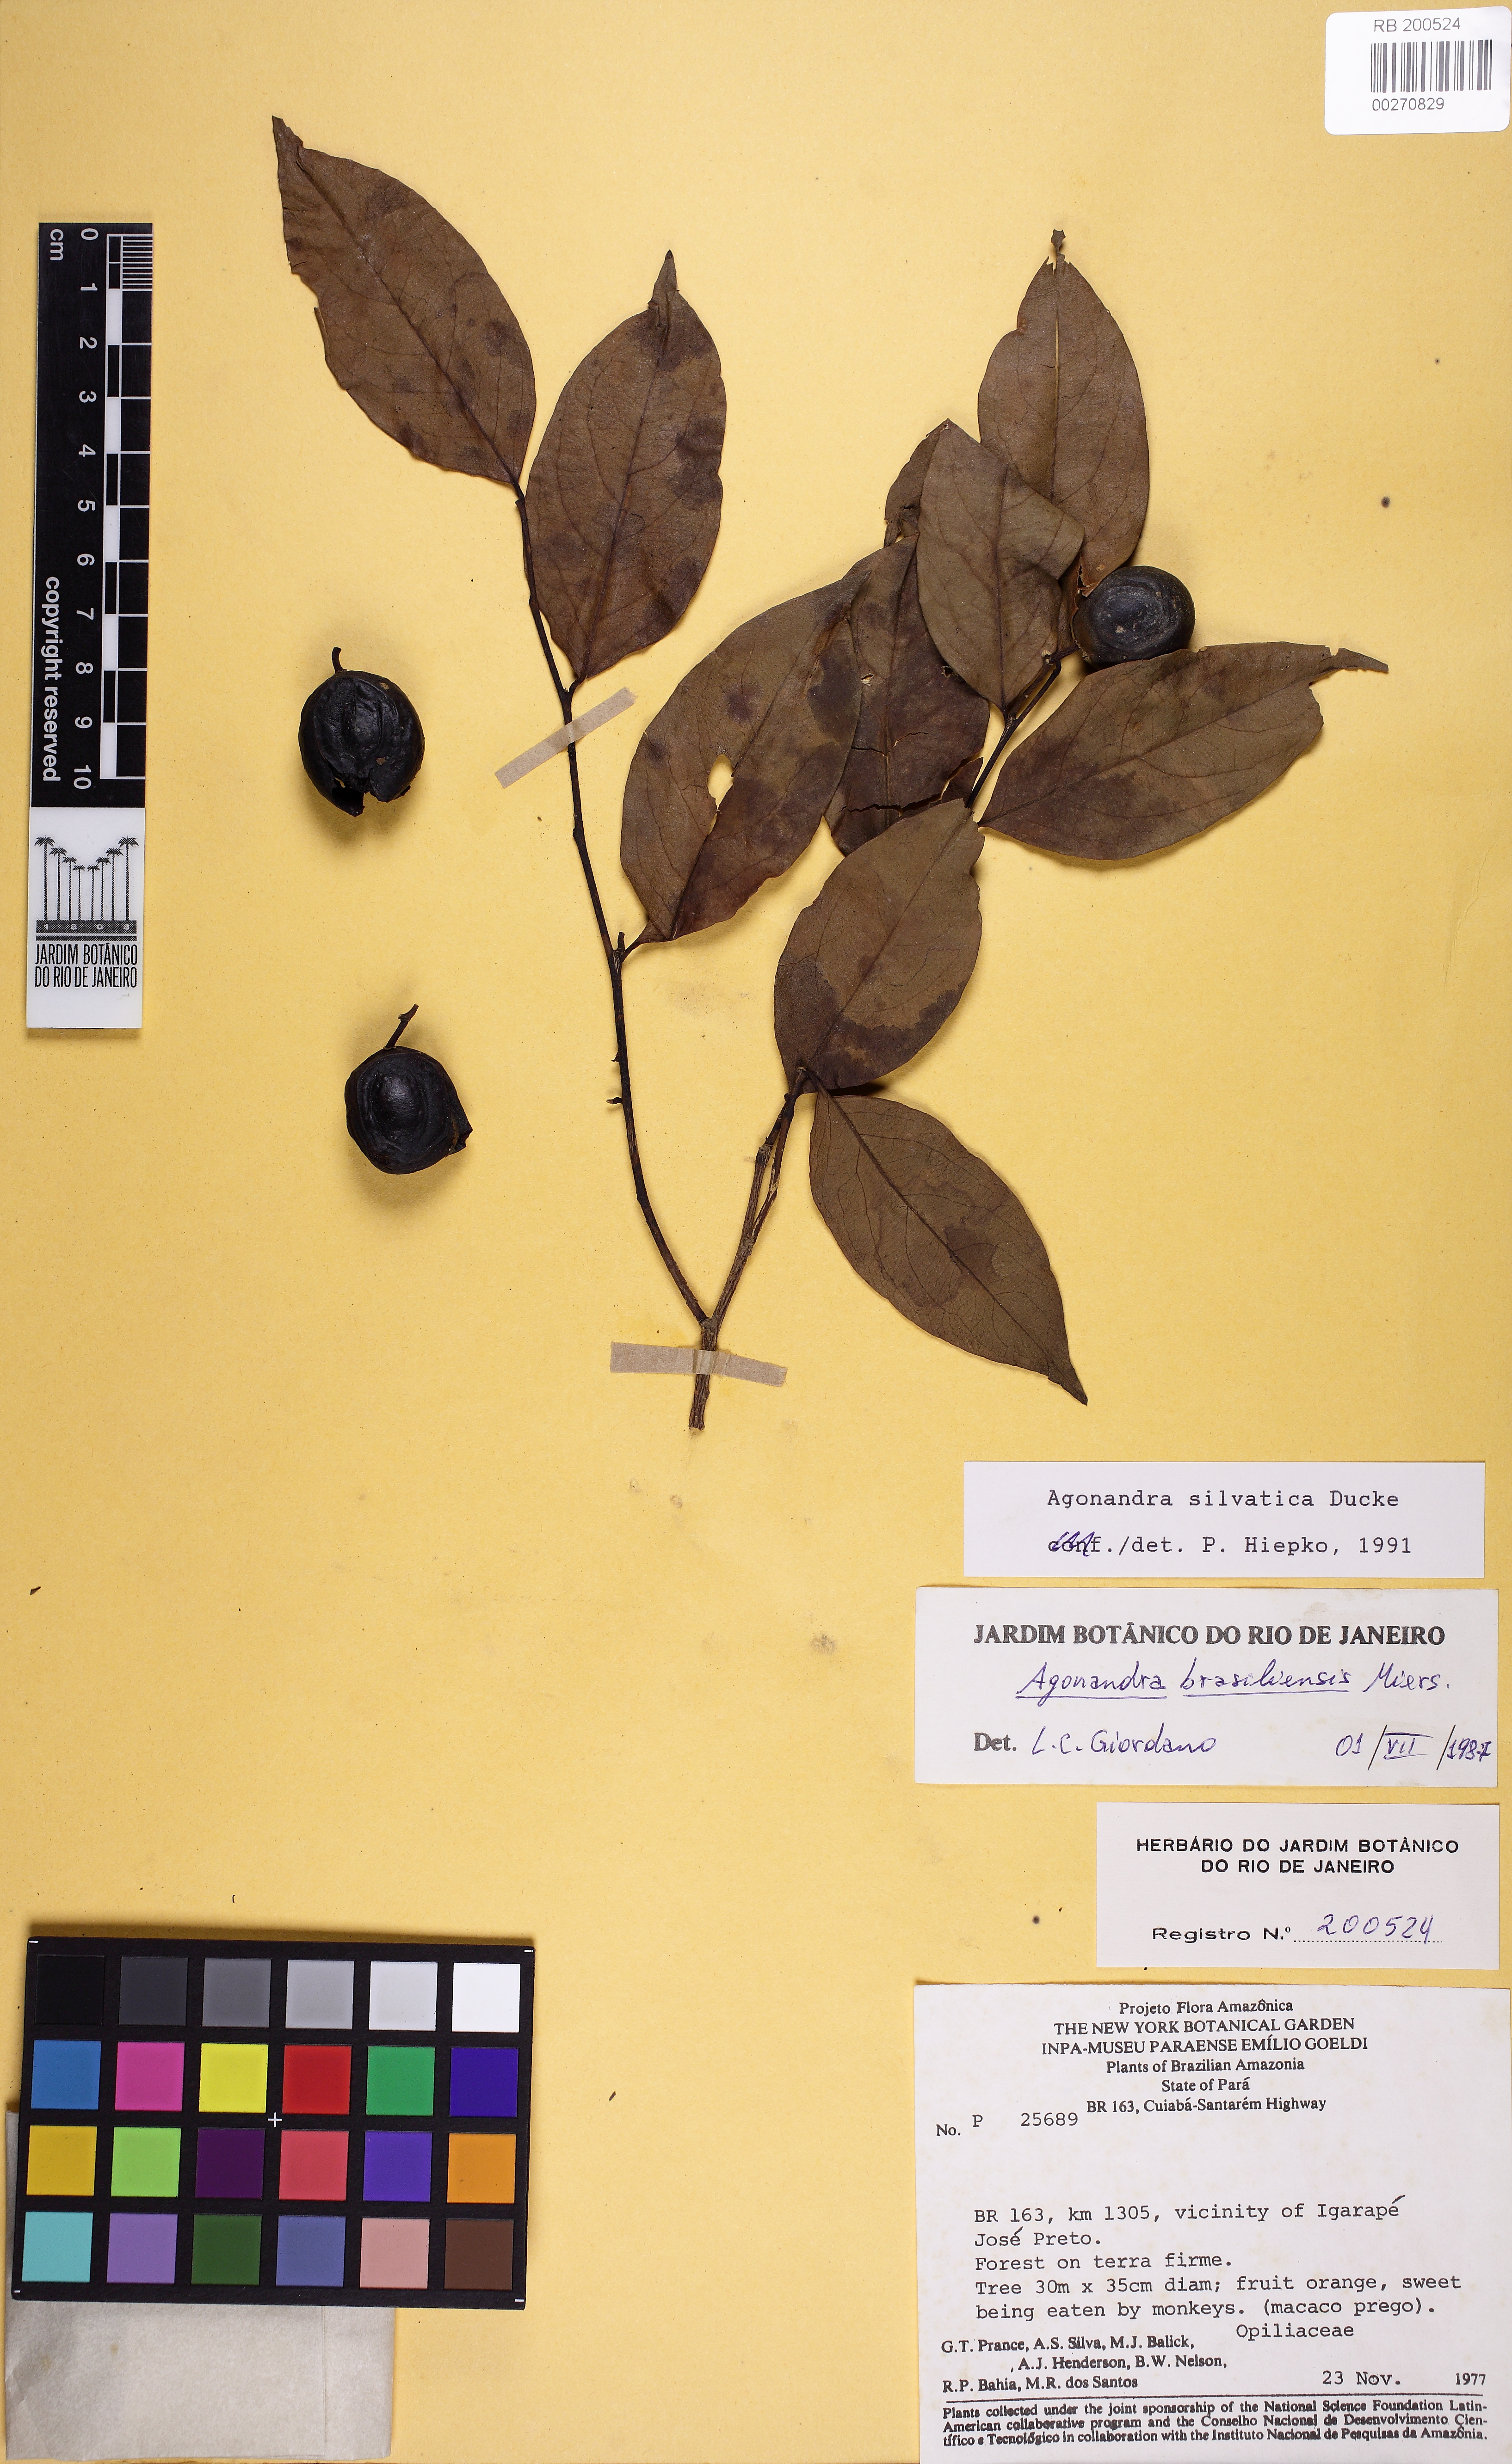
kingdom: Plantae
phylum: Tracheophyta
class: Magnoliopsida
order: Santalales
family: Opiliaceae
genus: Agonandra
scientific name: Agonandra silvatica
